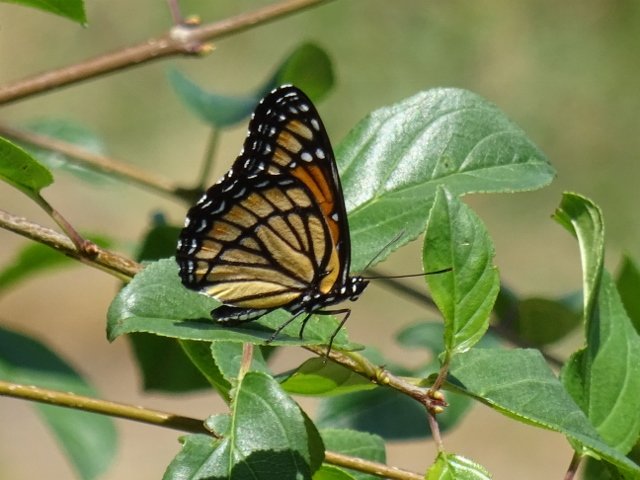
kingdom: Animalia
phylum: Arthropoda
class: Insecta
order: Lepidoptera
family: Nymphalidae
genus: Limenitis
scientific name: Limenitis archippus
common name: Viceroy
